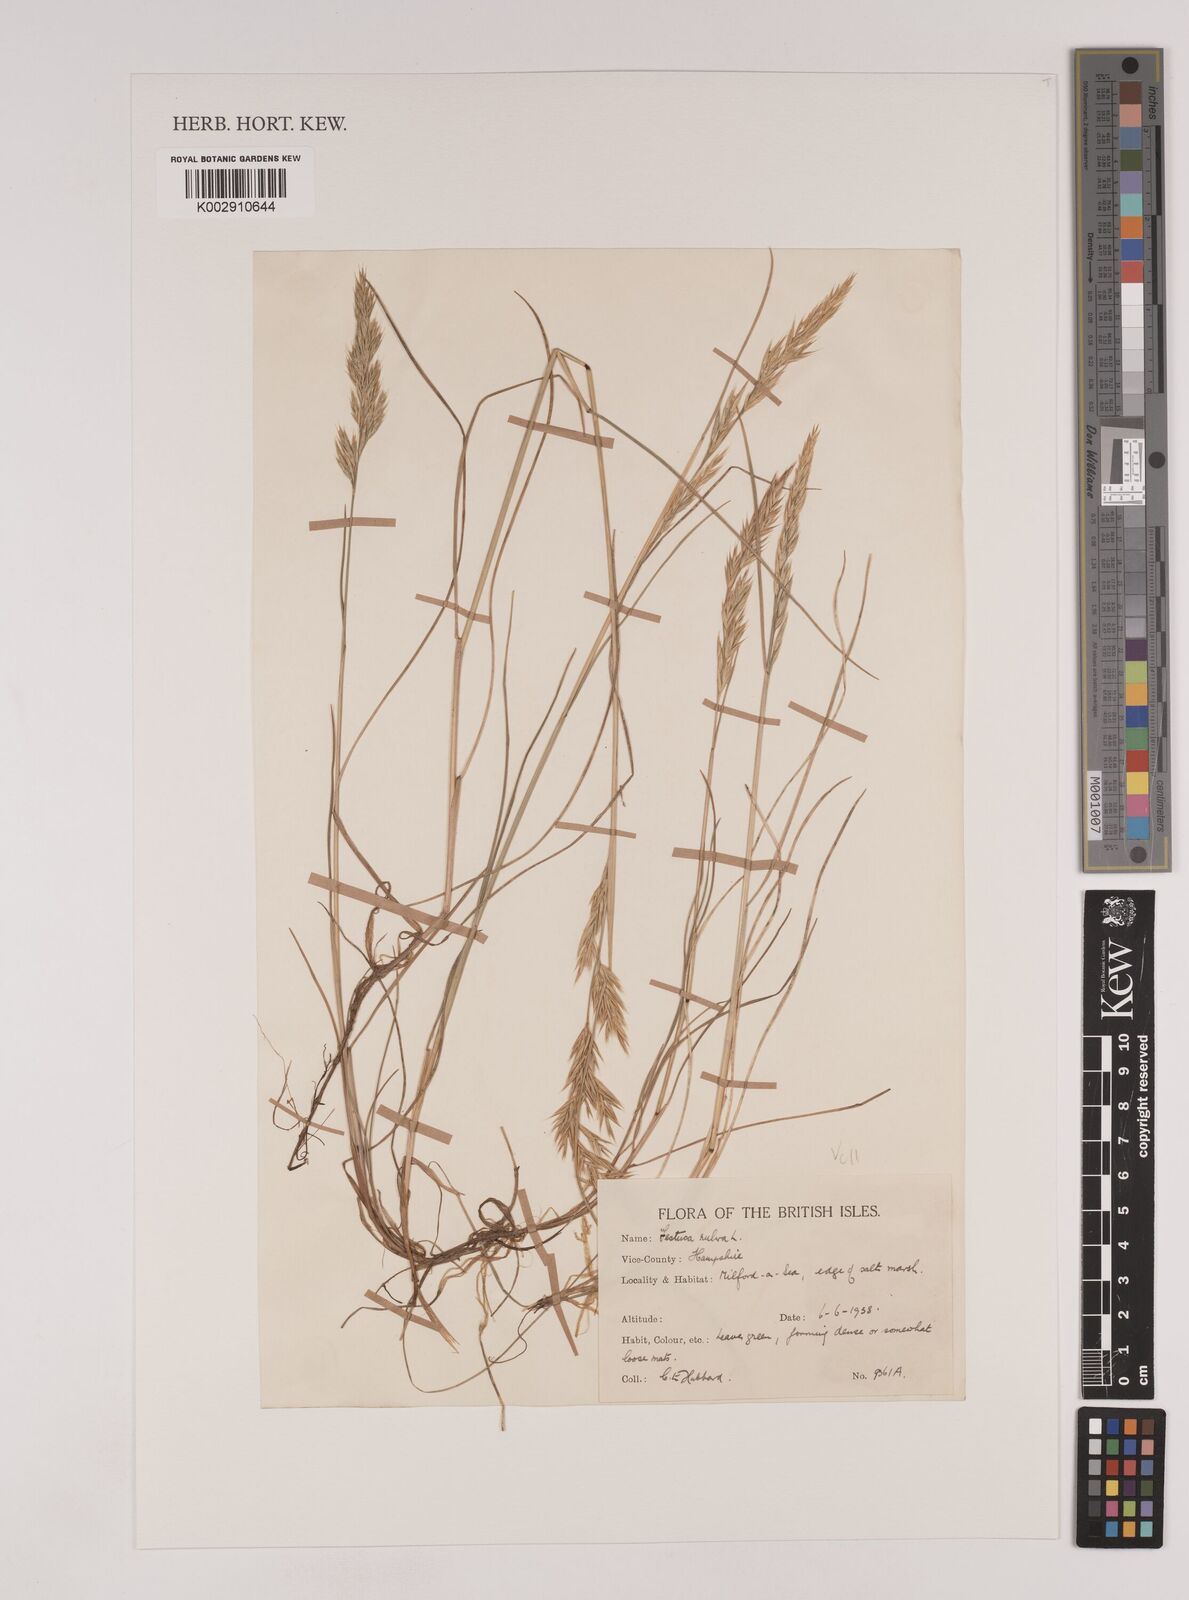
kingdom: Plantae
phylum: Tracheophyta
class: Liliopsida
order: Poales
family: Poaceae
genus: Festuca
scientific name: Festuca rubra
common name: Red fescue
